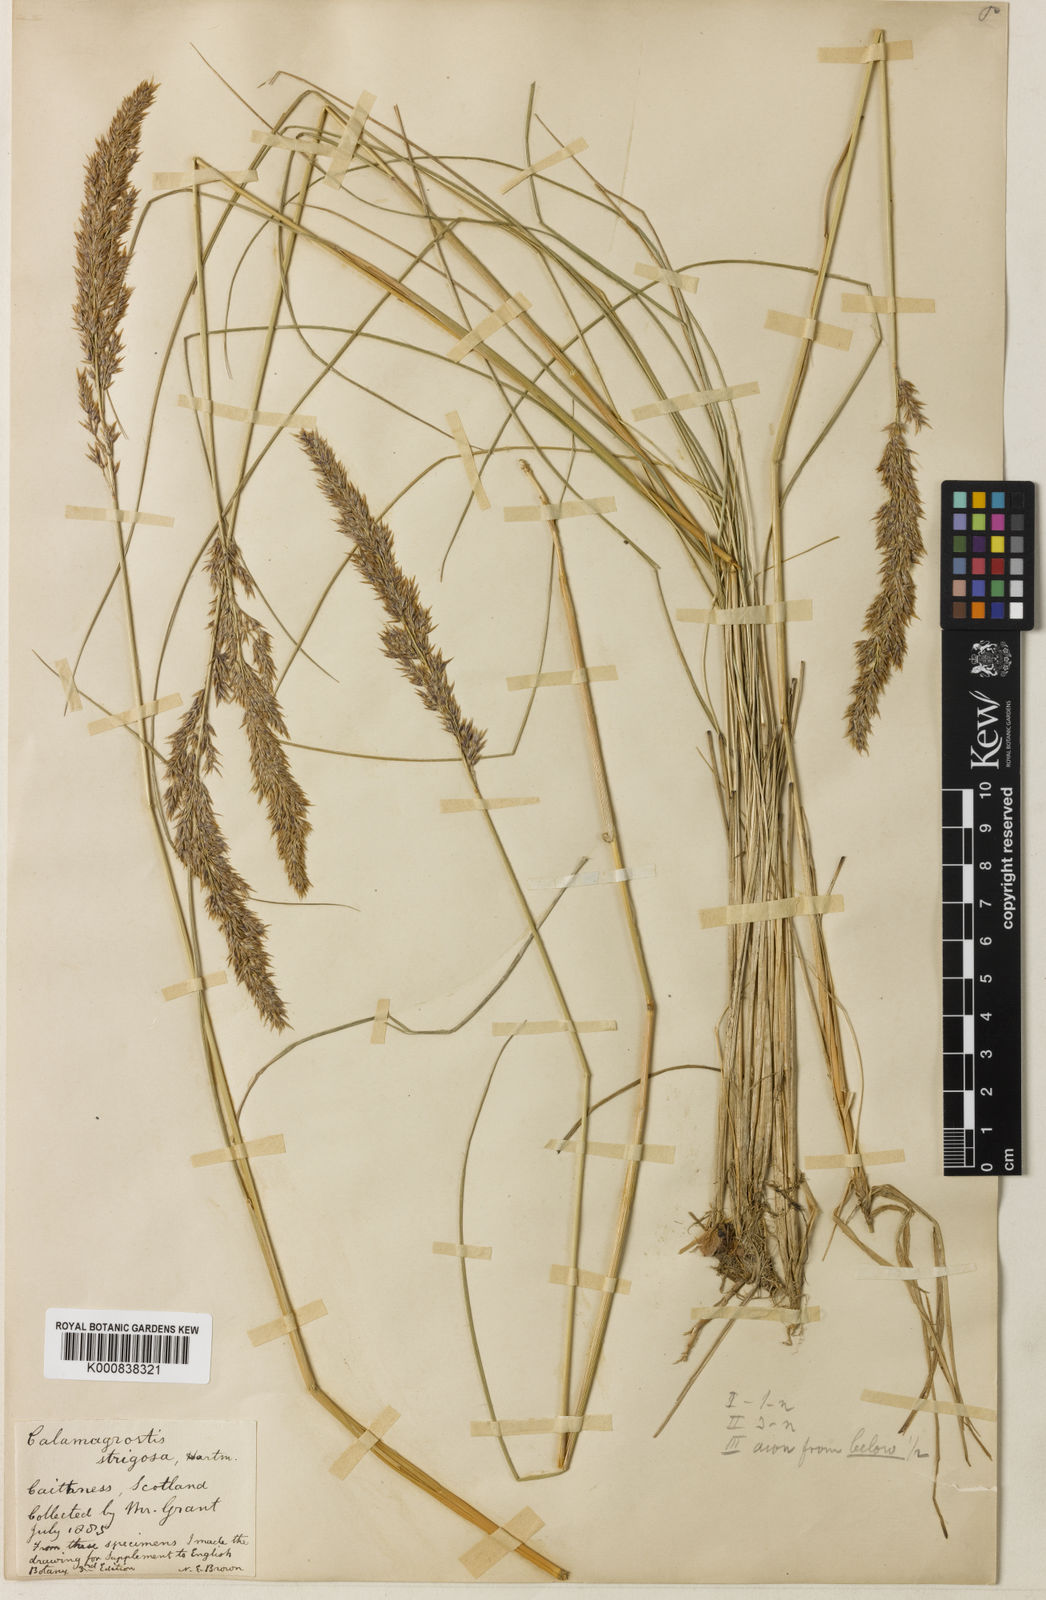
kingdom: Plantae
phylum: Tracheophyta
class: Liliopsida
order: Poales
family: Poaceae
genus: Calamagrostis
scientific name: Calamagrostis scotica
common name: Scottish small-reed
